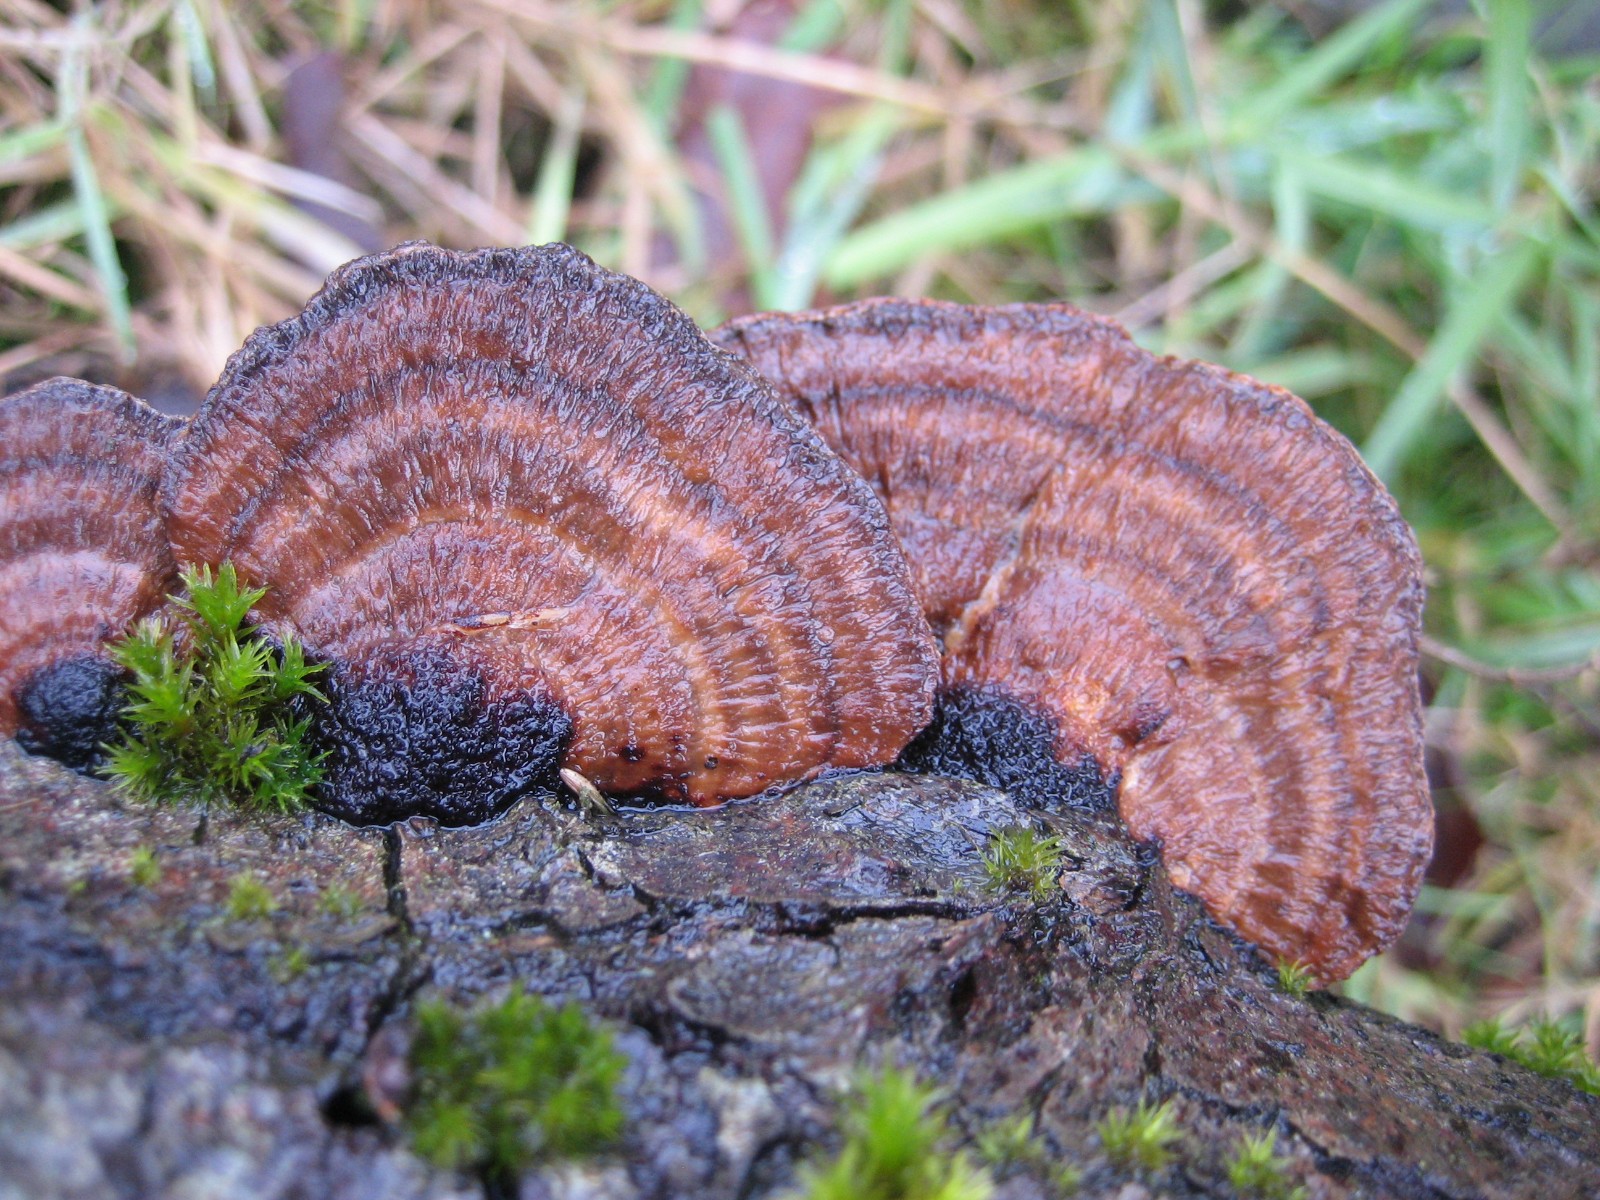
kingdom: Fungi
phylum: Basidiomycota
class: Agaricomycetes
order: Polyporales
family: Polyporaceae
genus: Daedaleopsis
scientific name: Daedaleopsis confragosa
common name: rødmende læderporesvamp
